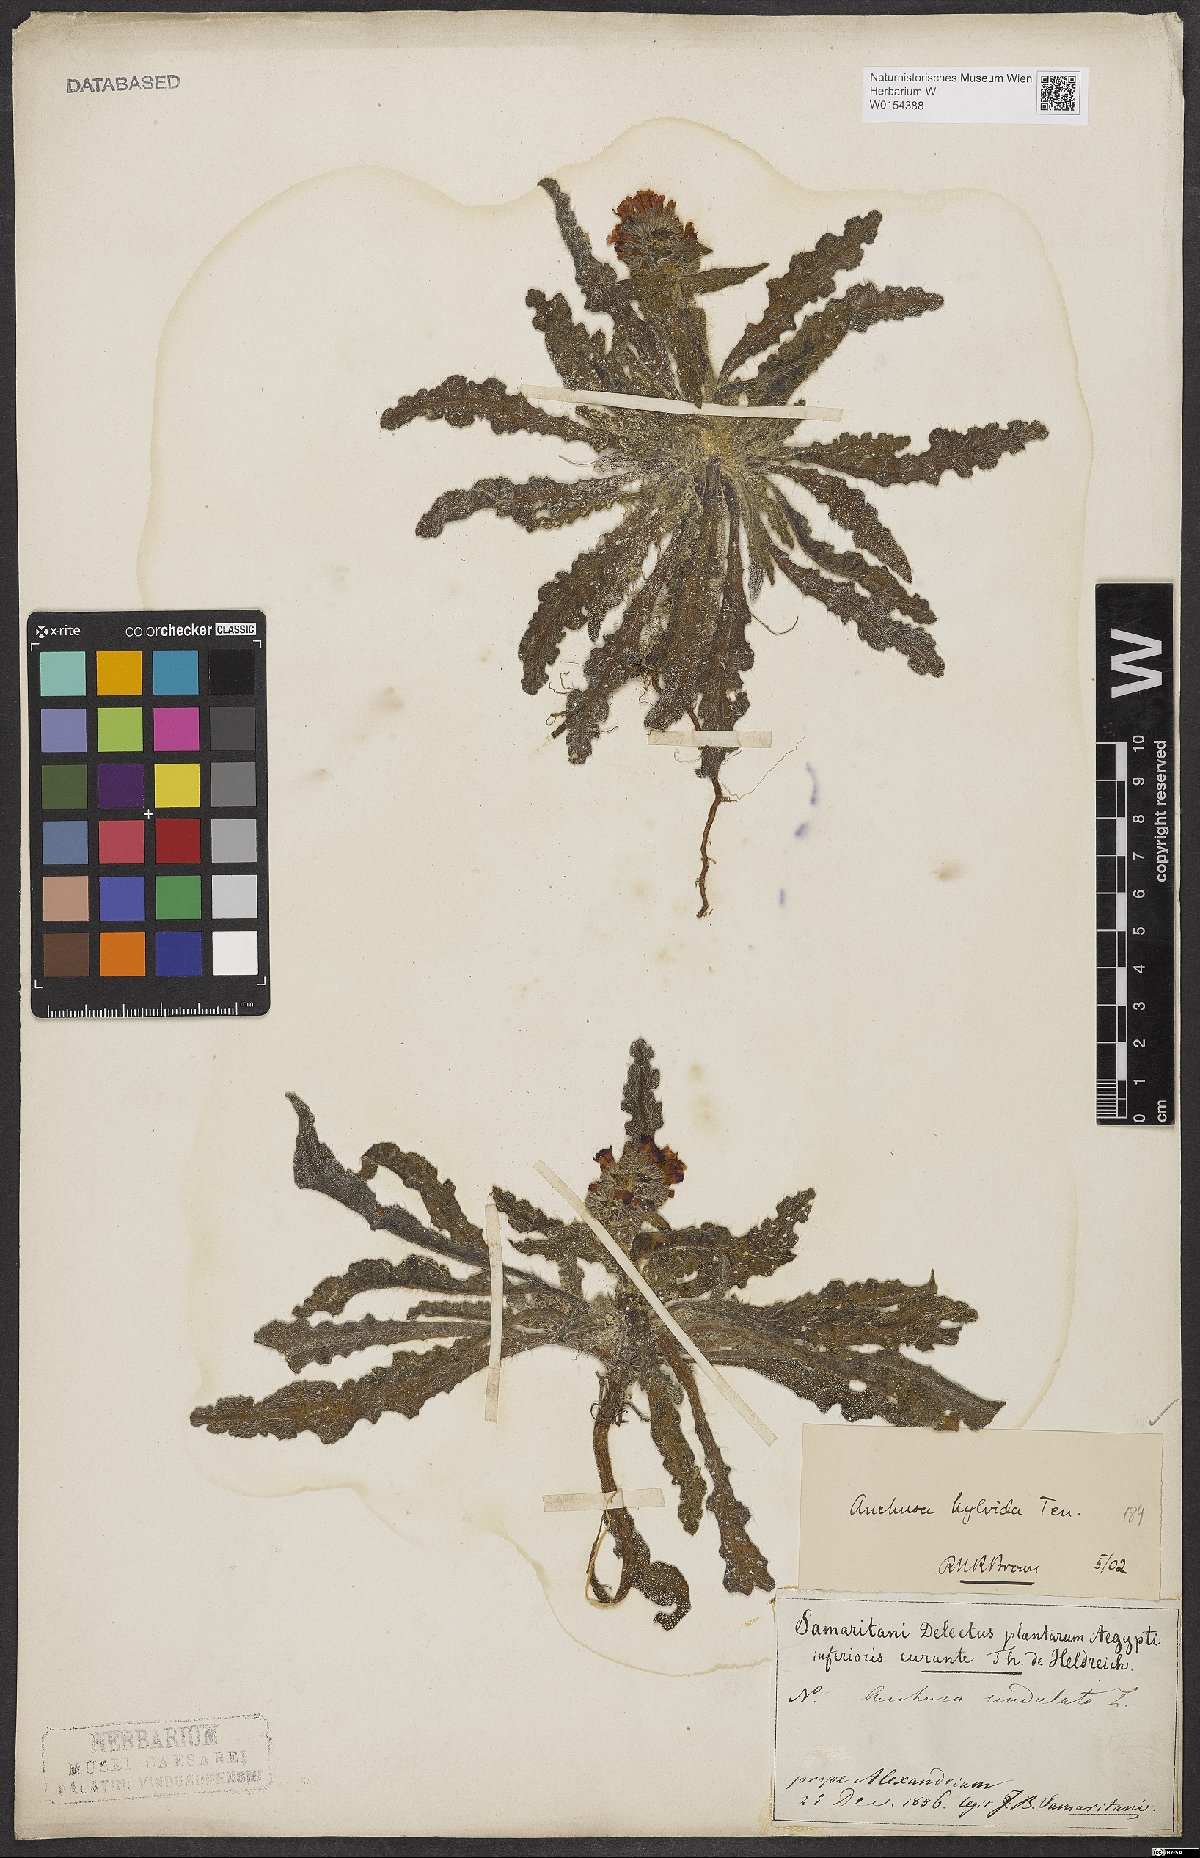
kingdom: Plantae
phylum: Tracheophyta
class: Magnoliopsida
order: Boraginales
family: Boraginaceae
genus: Anchusa
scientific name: Anchusa hybrida
